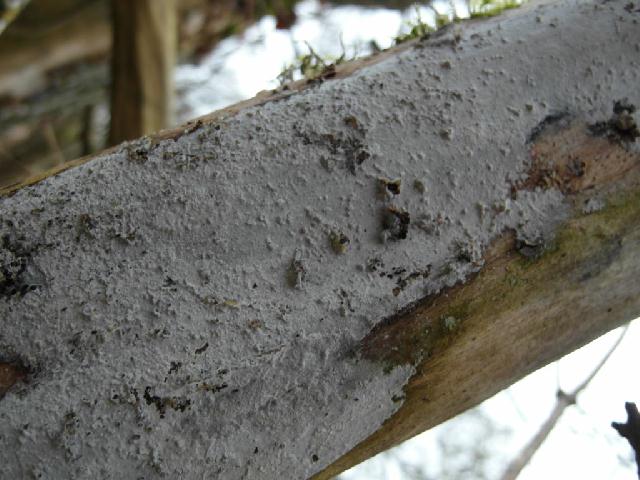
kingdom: Fungi
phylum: Basidiomycota
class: Agaricomycetes
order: Corticiales
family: Corticiaceae
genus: Lyomyces
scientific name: Lyomyces sambuci
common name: almindelig hyldehinde
